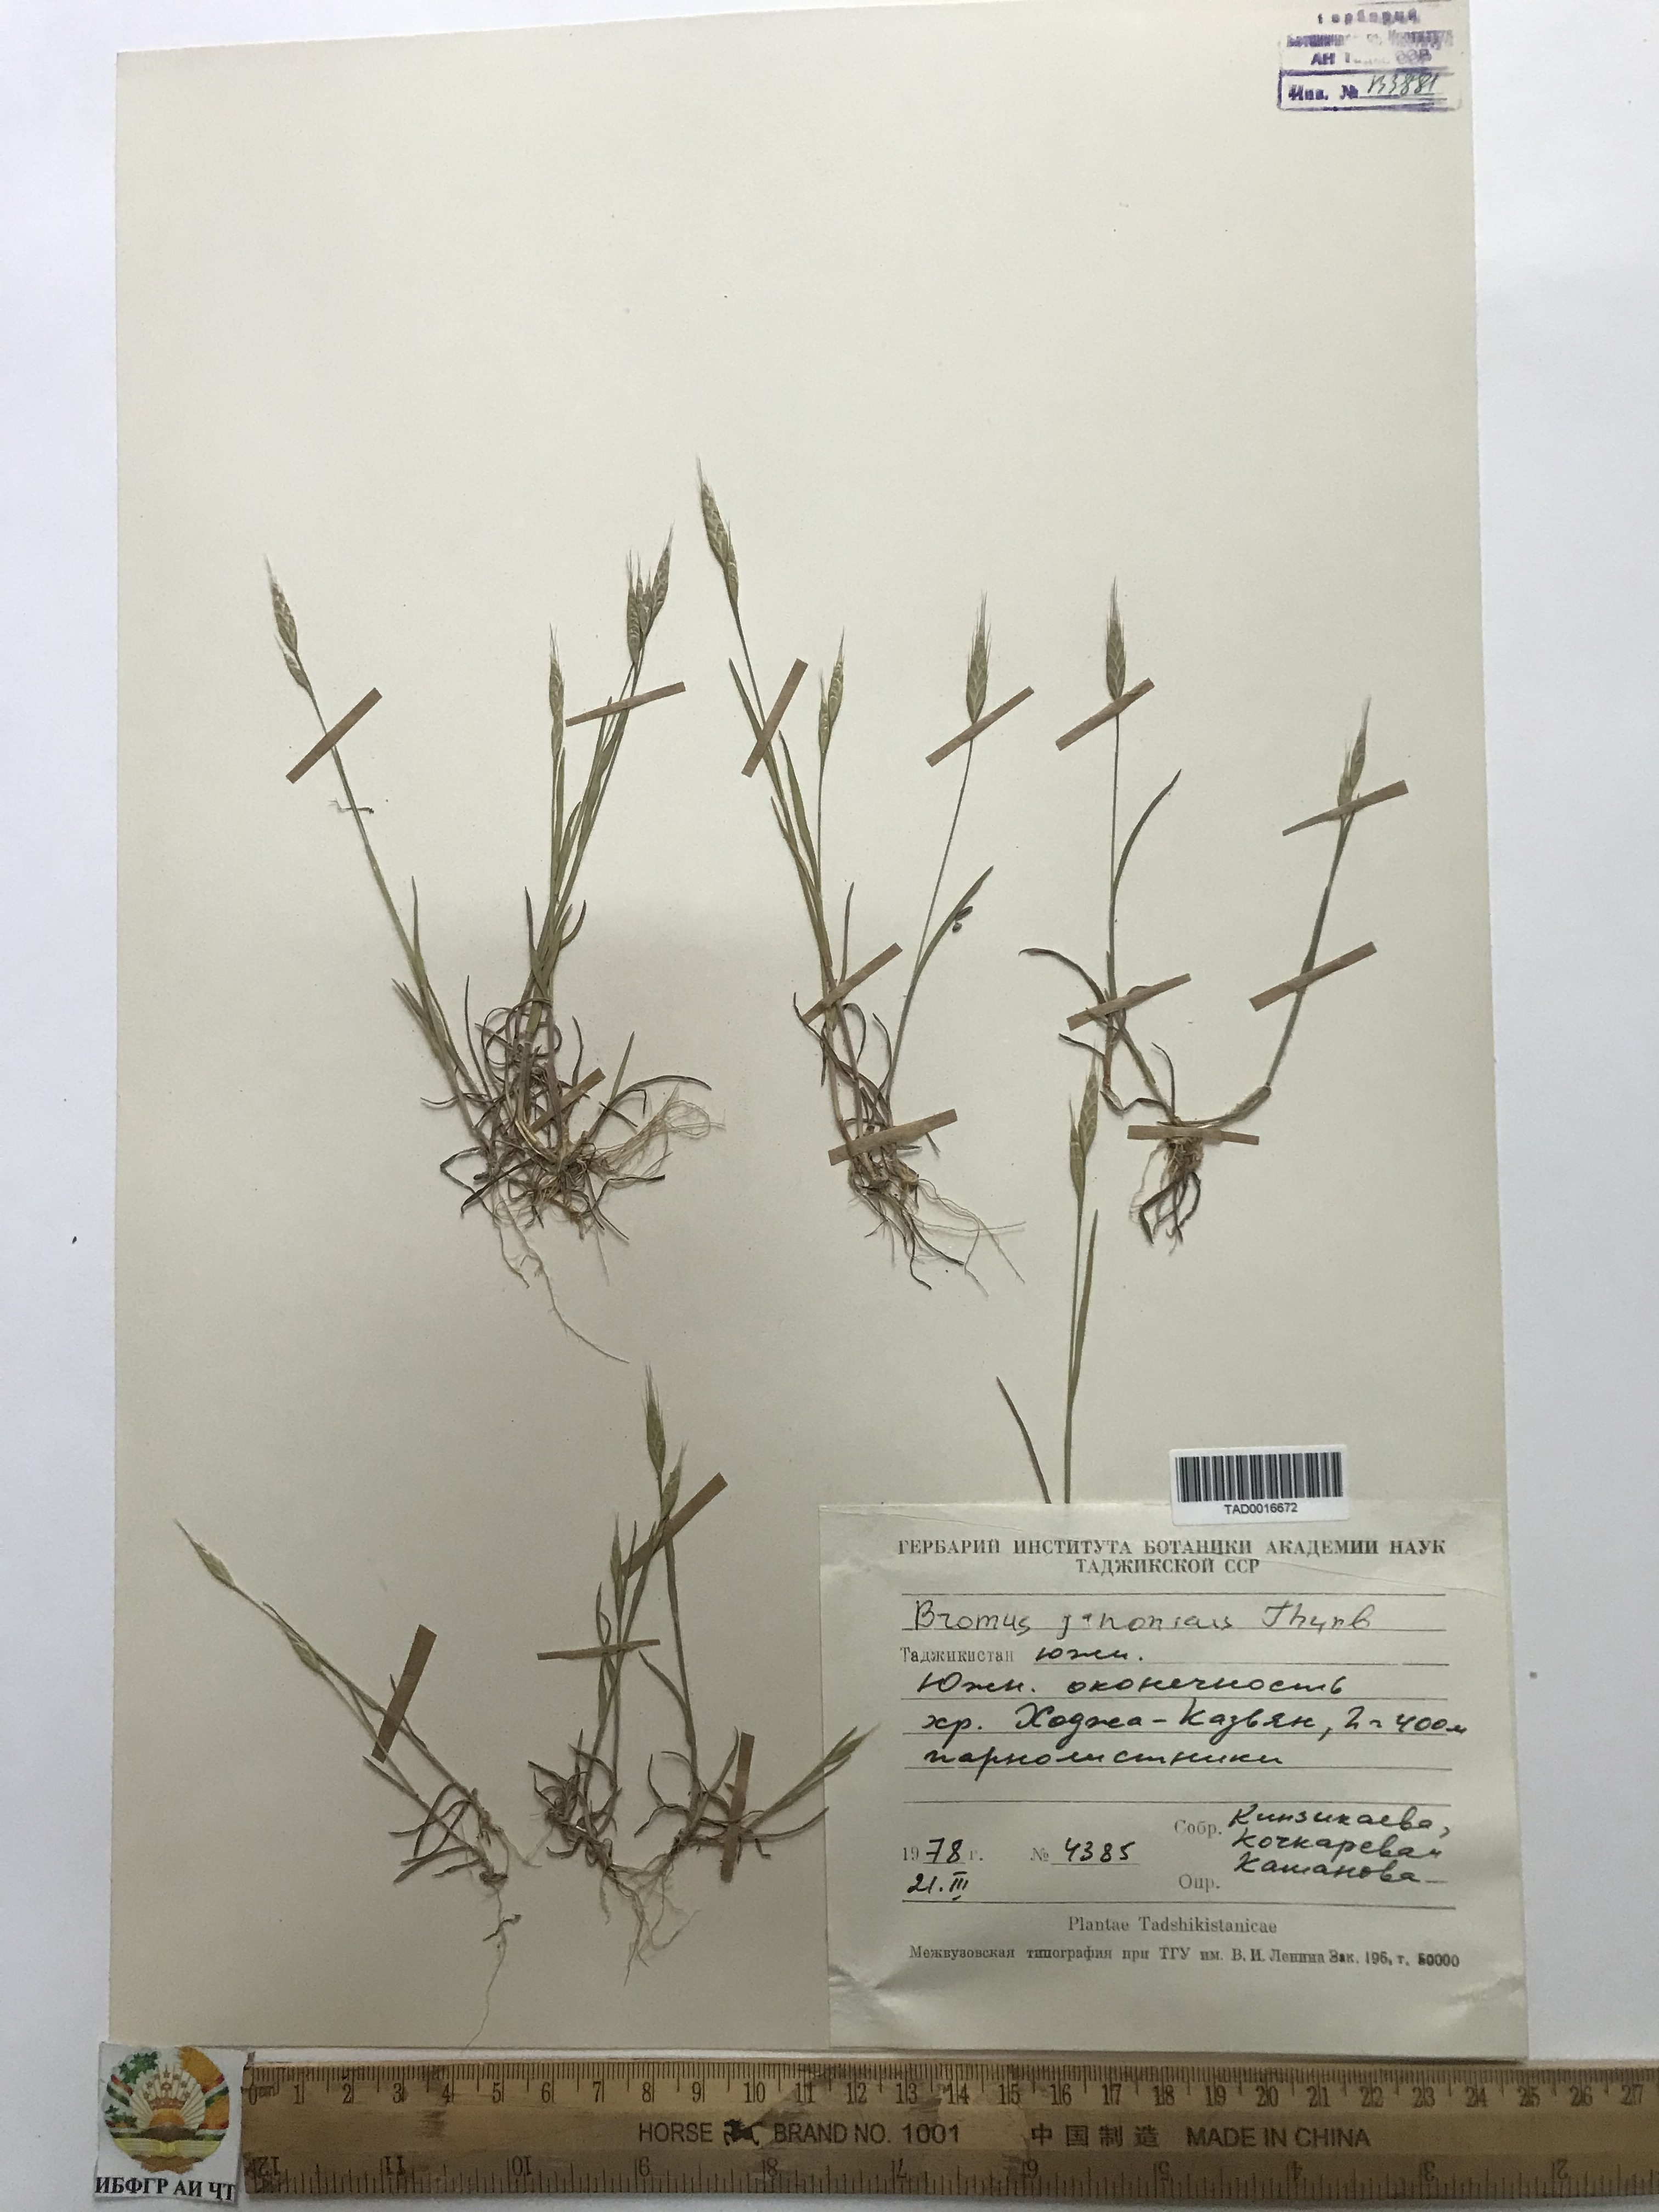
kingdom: Plantae
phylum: Tracheophyta
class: Liliopsida
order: Poales
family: Poaceae
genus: Bromus
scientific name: Bromus japonicus
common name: Japanese brome
